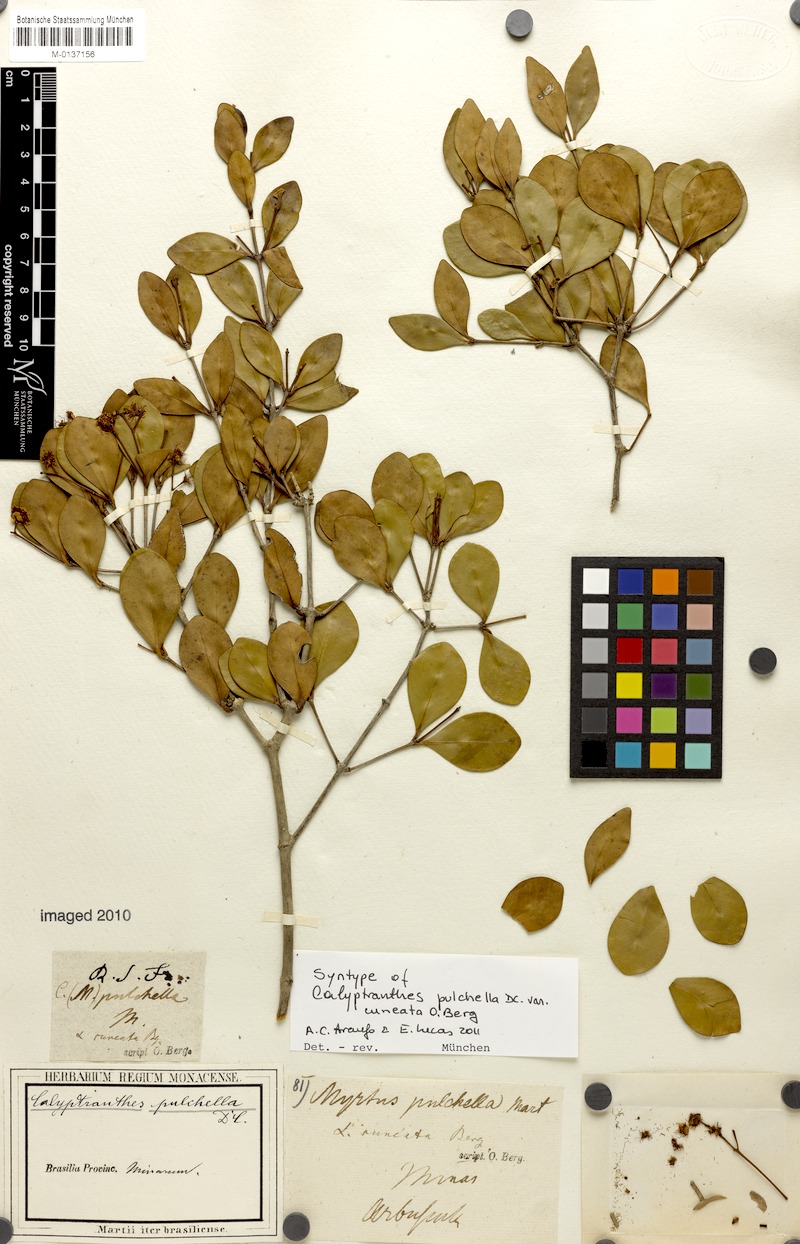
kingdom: Plantae
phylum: Tracheophyta
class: Magnoliopsida
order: Myrtales
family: Myrtaceae
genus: Myrcia
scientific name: Myrcia pulchella
